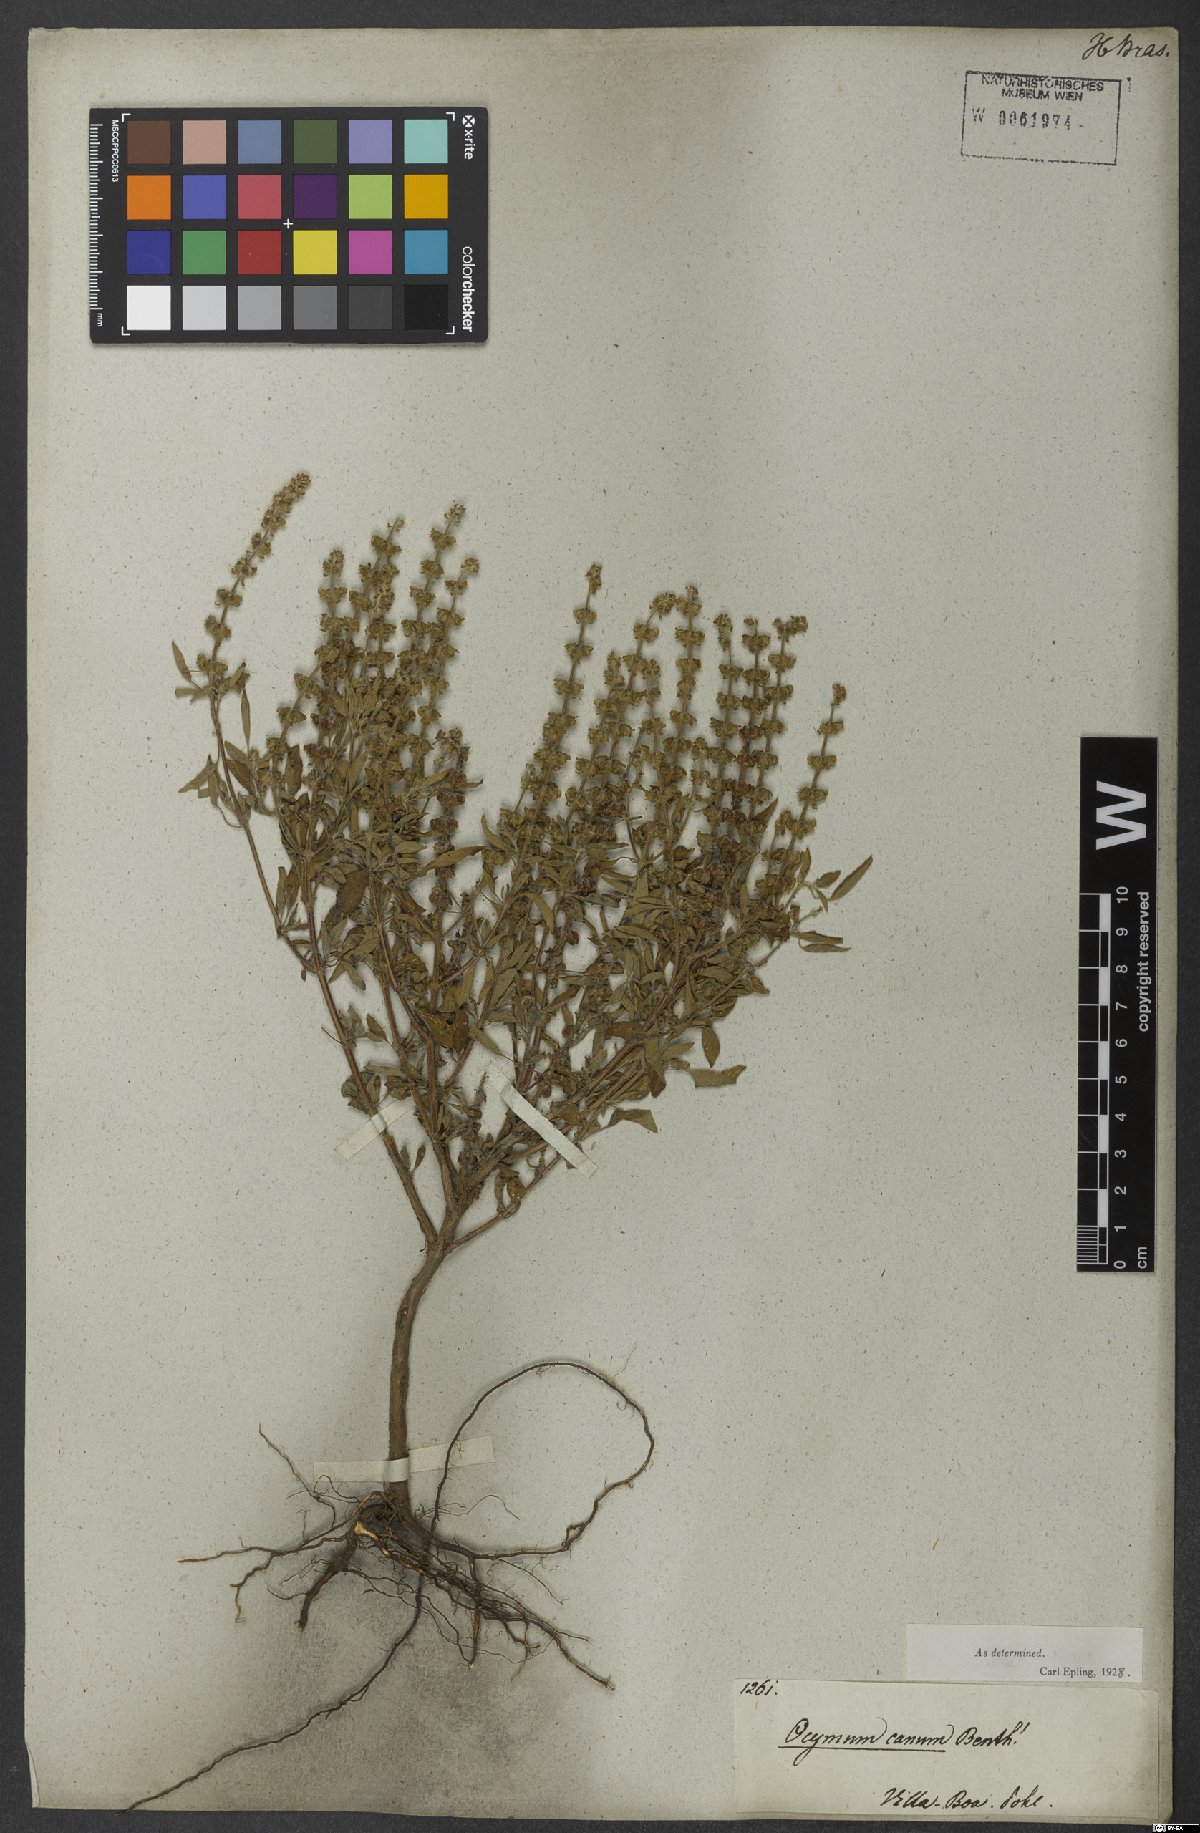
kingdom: Plantae
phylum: Tracheophyta
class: Magnoliopsida
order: Lamiales
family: Lamiaceae
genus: Ocimum
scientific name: Ocimum americanum
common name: American basil
